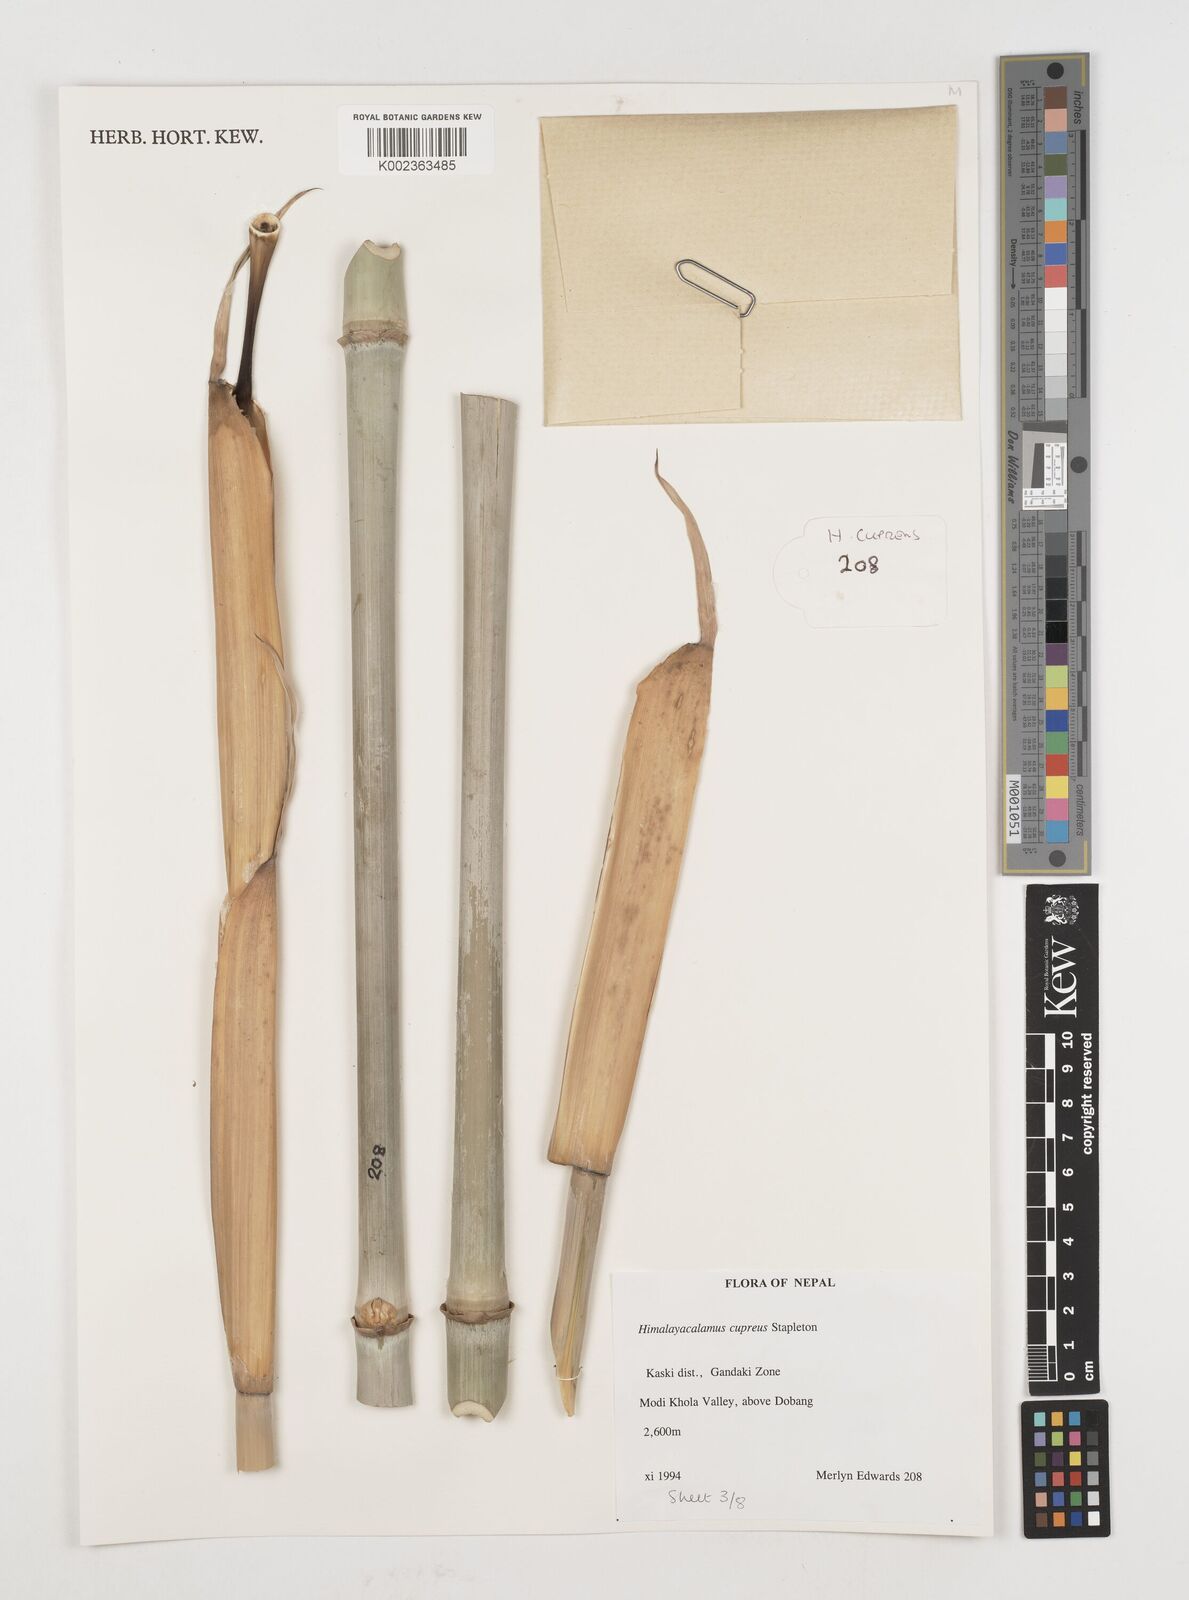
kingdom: Plantae
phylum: Tracheophyta
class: Liliopsida
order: Poales
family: Poaceae
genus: Himalayacalamus
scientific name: Himalayacalamus cupreus
